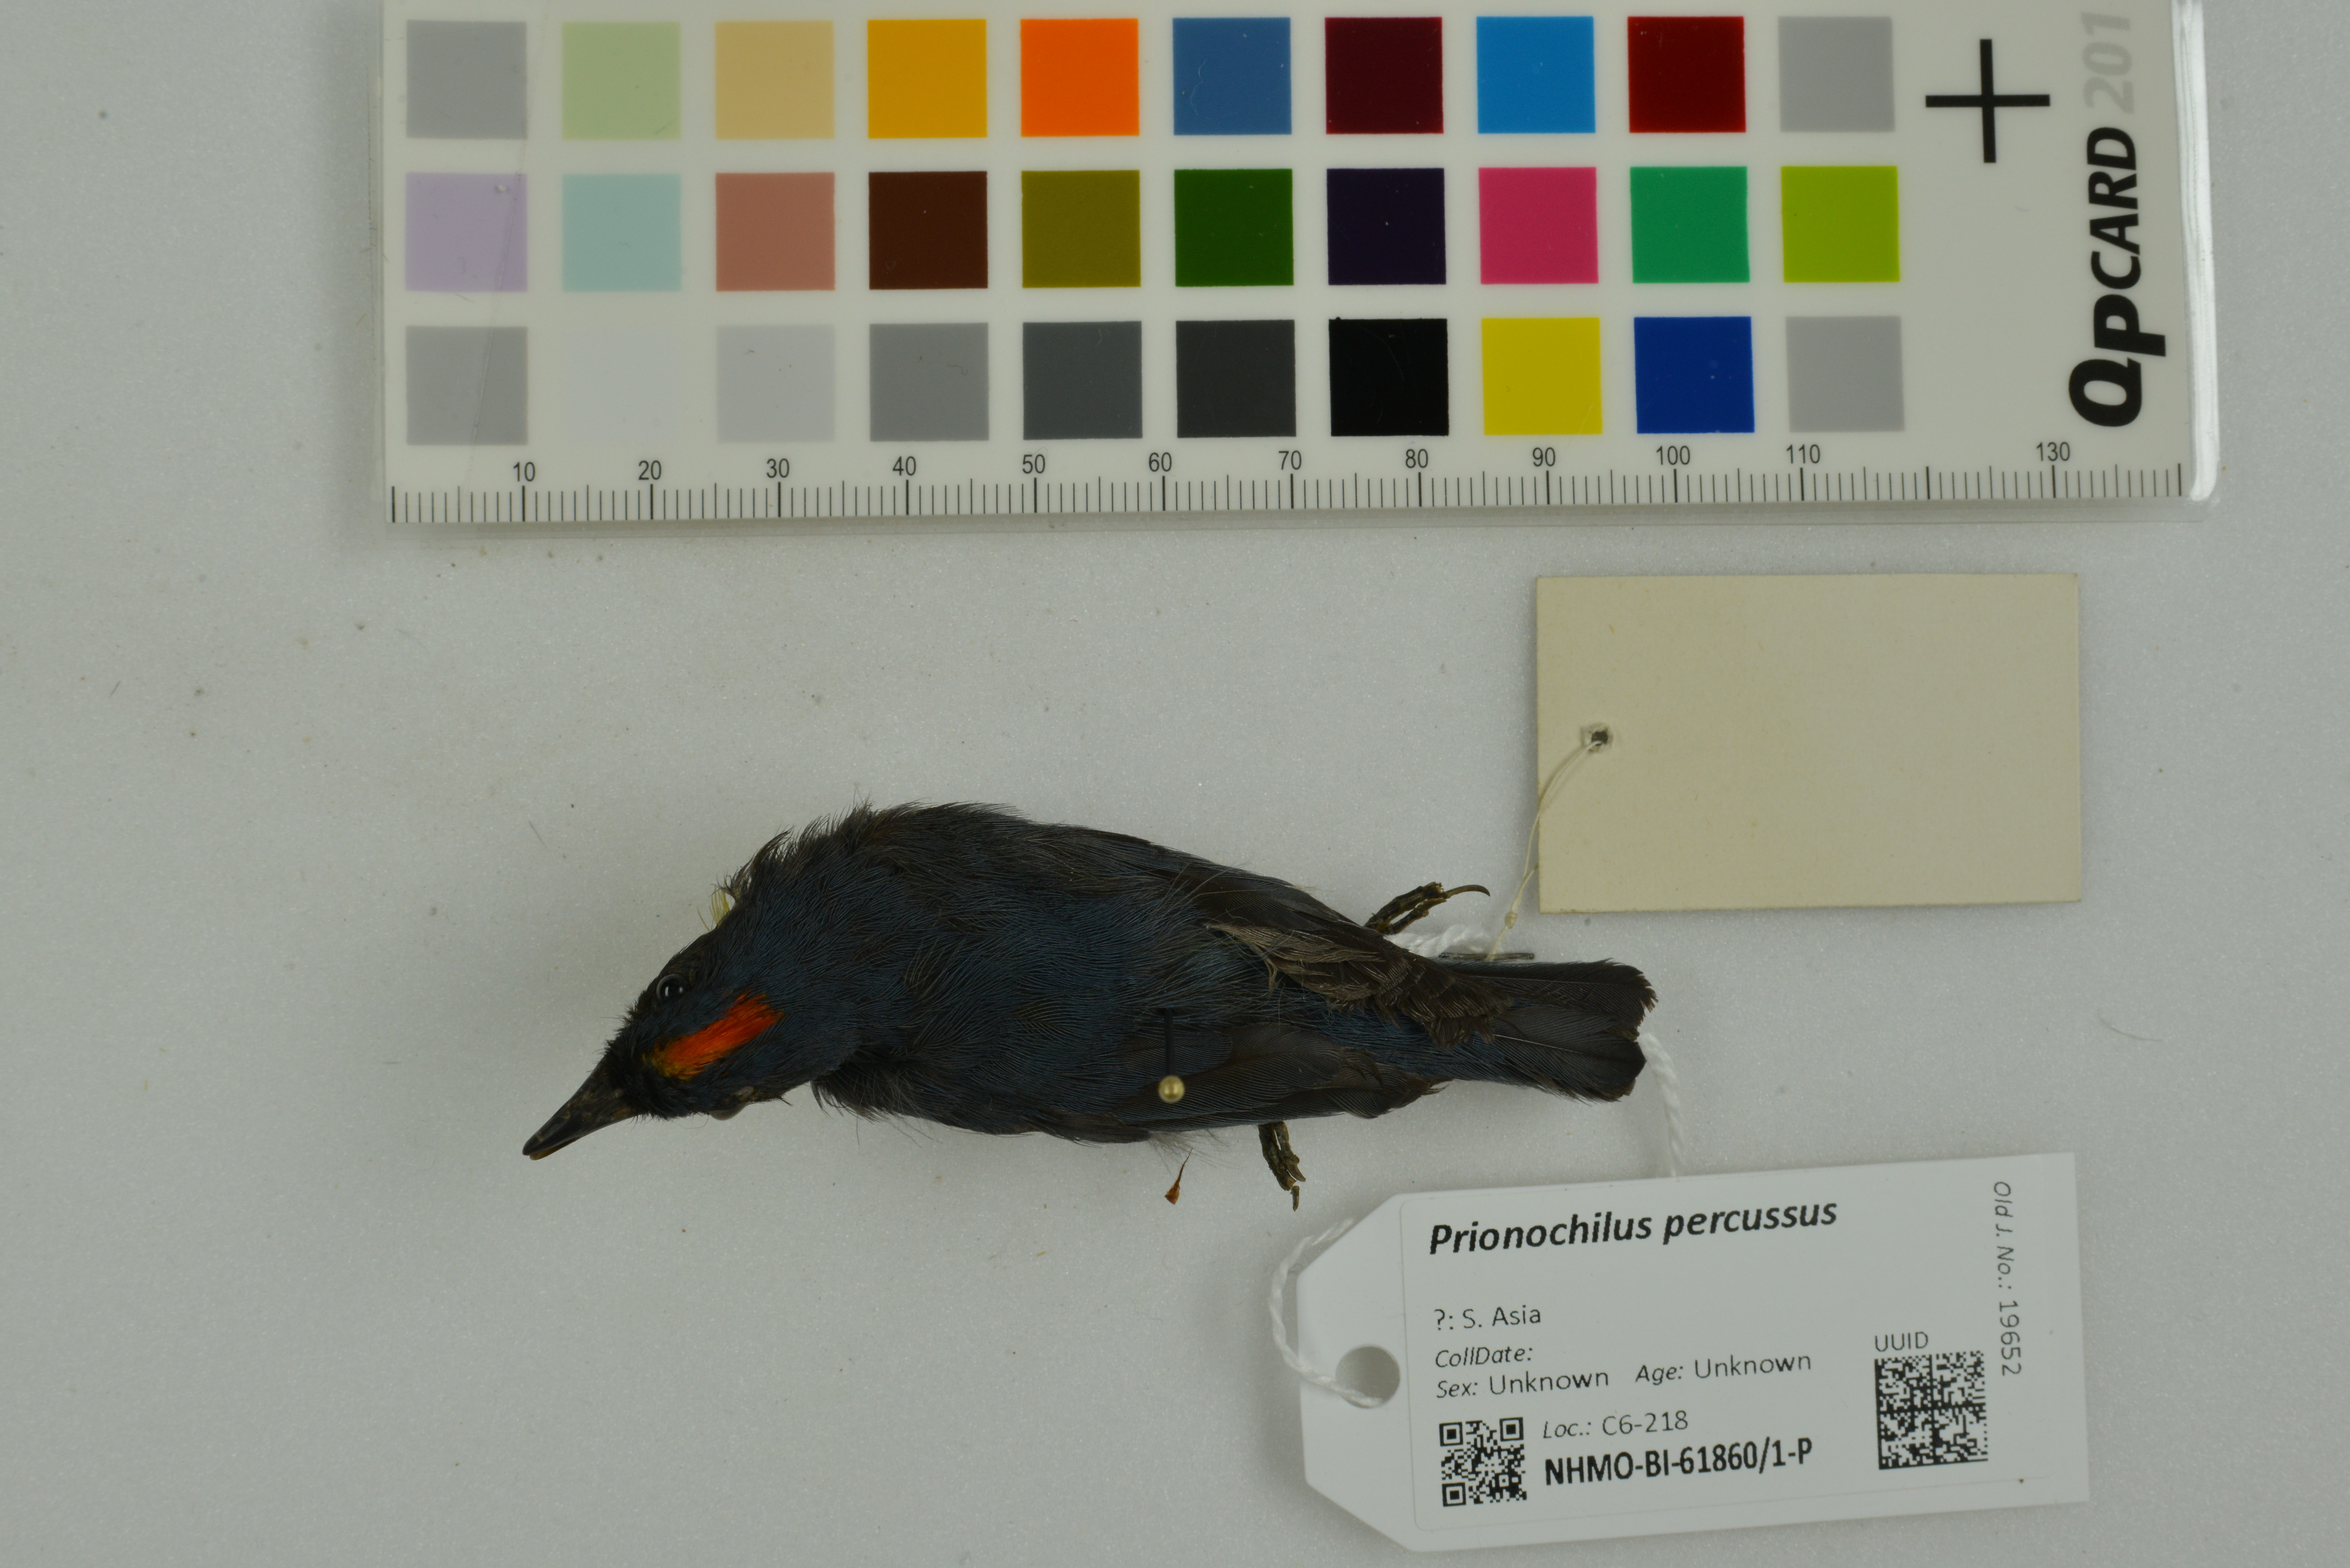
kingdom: Animalia
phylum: Chordata
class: Aves
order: Passeriformes
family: Dicaeidae
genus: Prionochilus
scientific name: Prionochilus percussus
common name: Crimson-breasted flowerpecker
